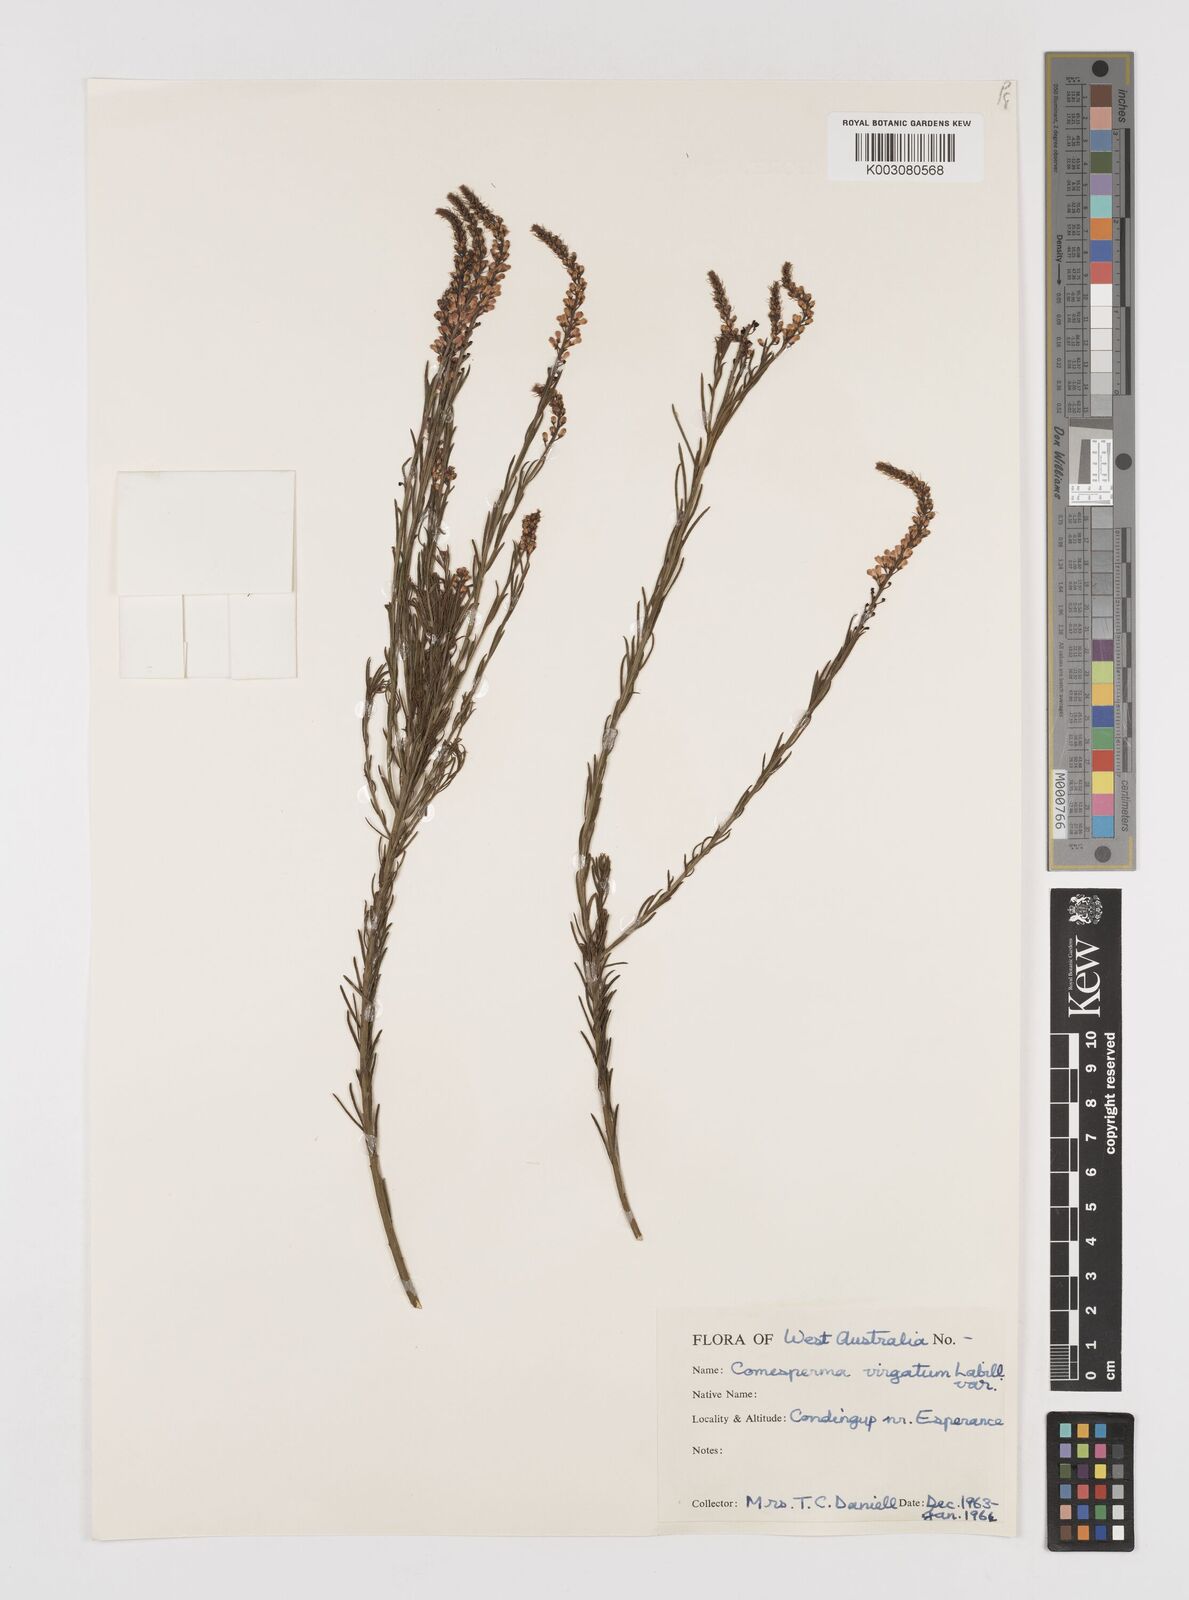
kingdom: Plantae
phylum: Tracheophyta
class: Magnoliopsida
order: Fabales
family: Polygalaceae
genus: Comesperma
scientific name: Comesperma virgatum
